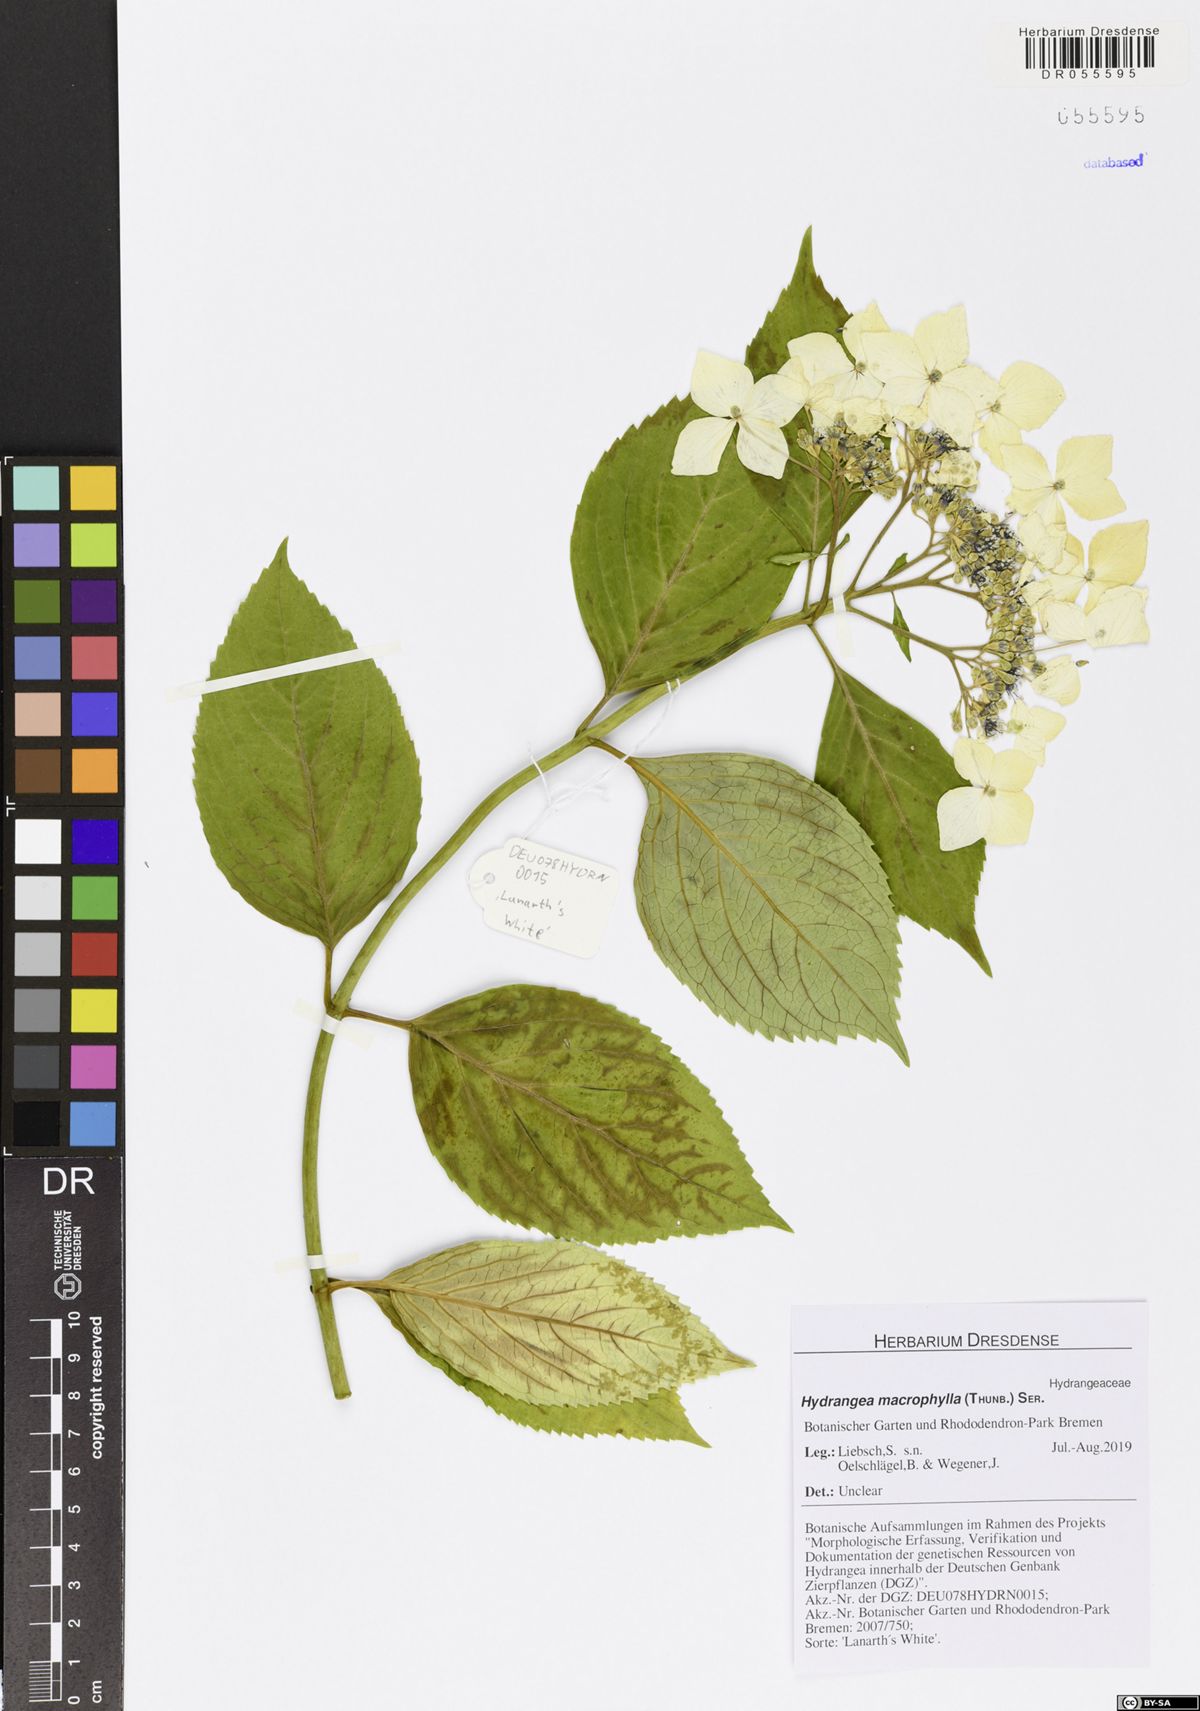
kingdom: Plantae
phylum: Tracheophyta
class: Magnoliopsida
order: Cornales
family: Hydrangeaceae
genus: Hydrangea
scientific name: Hydrangea macrophylla
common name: Hydrangea
